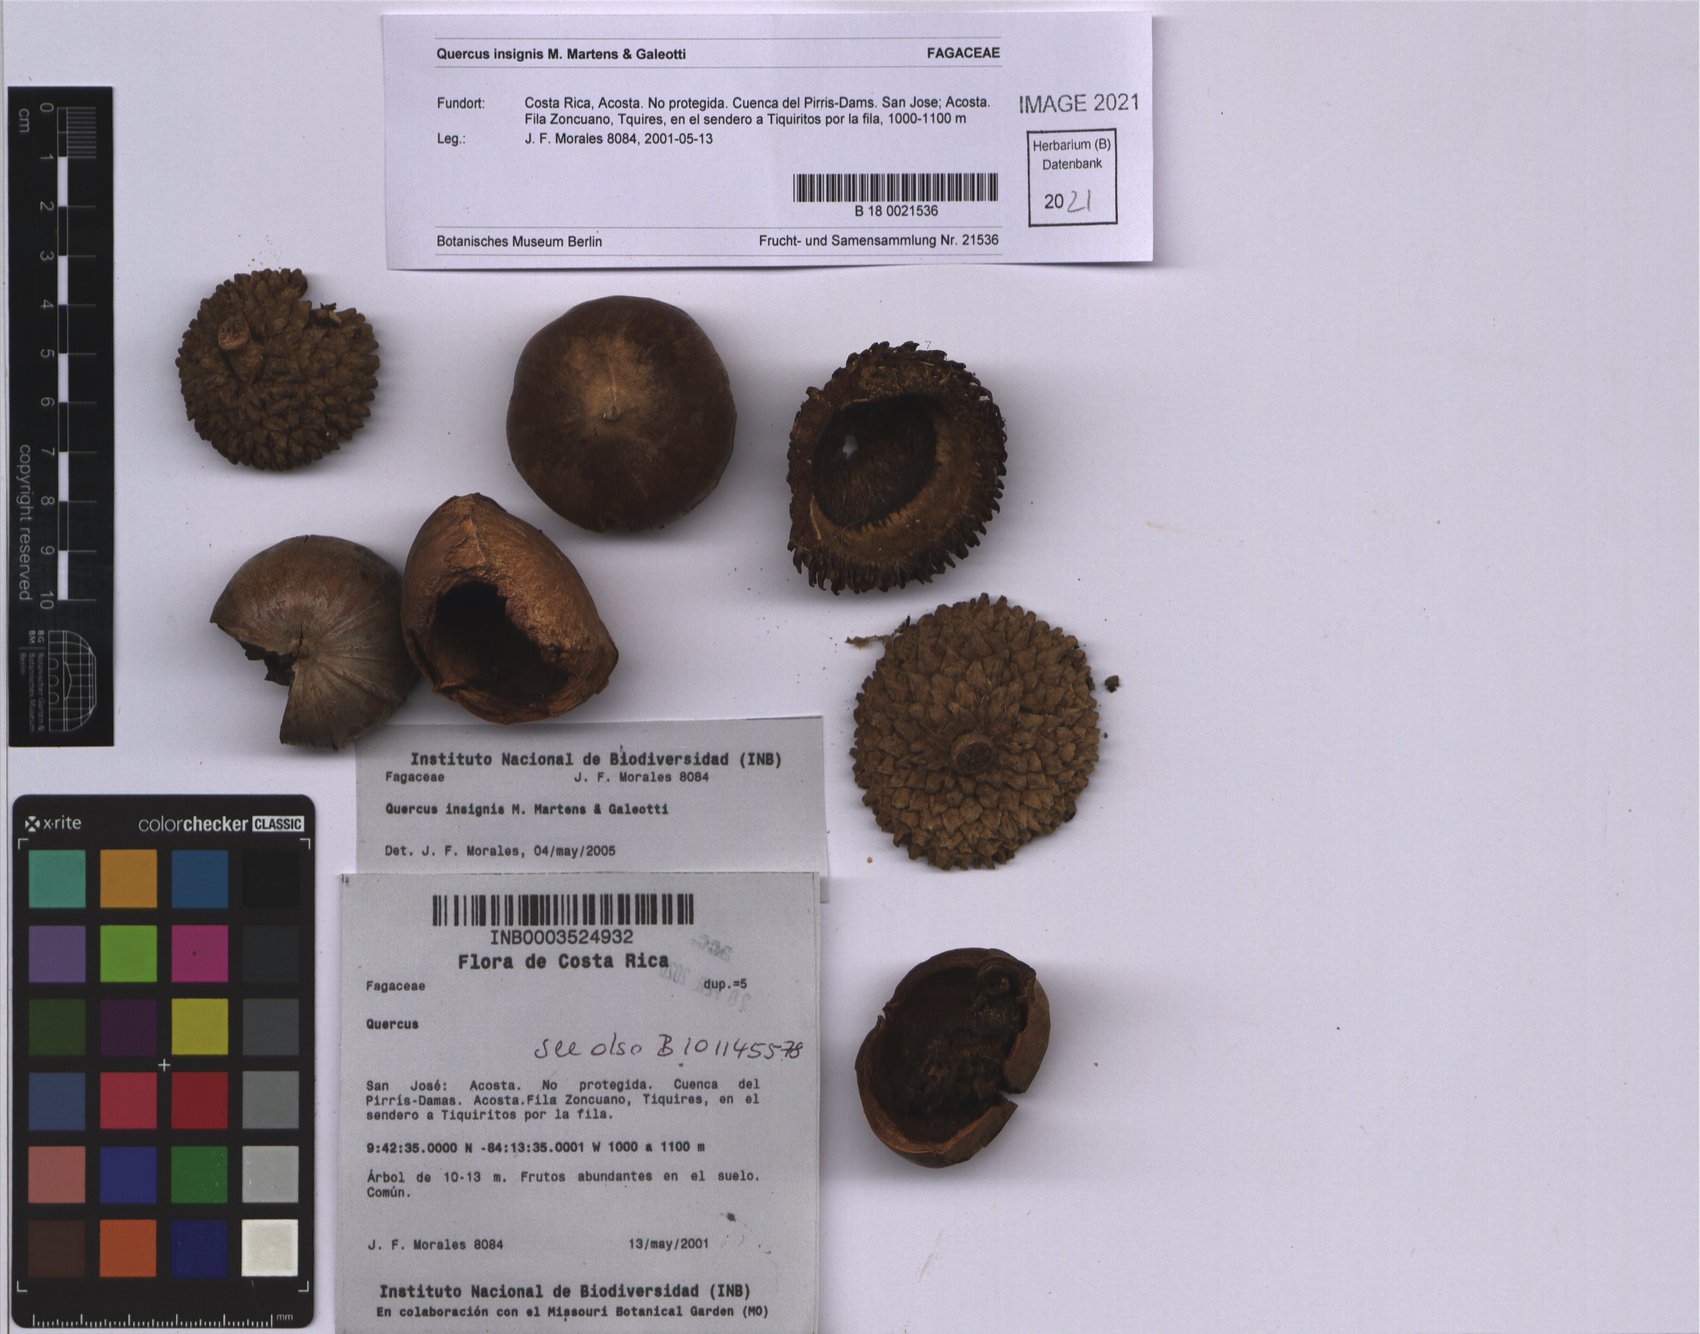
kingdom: Plantae
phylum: Tracheophyta
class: Magnoliopsida
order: Fagales
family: Fagaceae
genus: Quercus
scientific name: Quercus insignis
